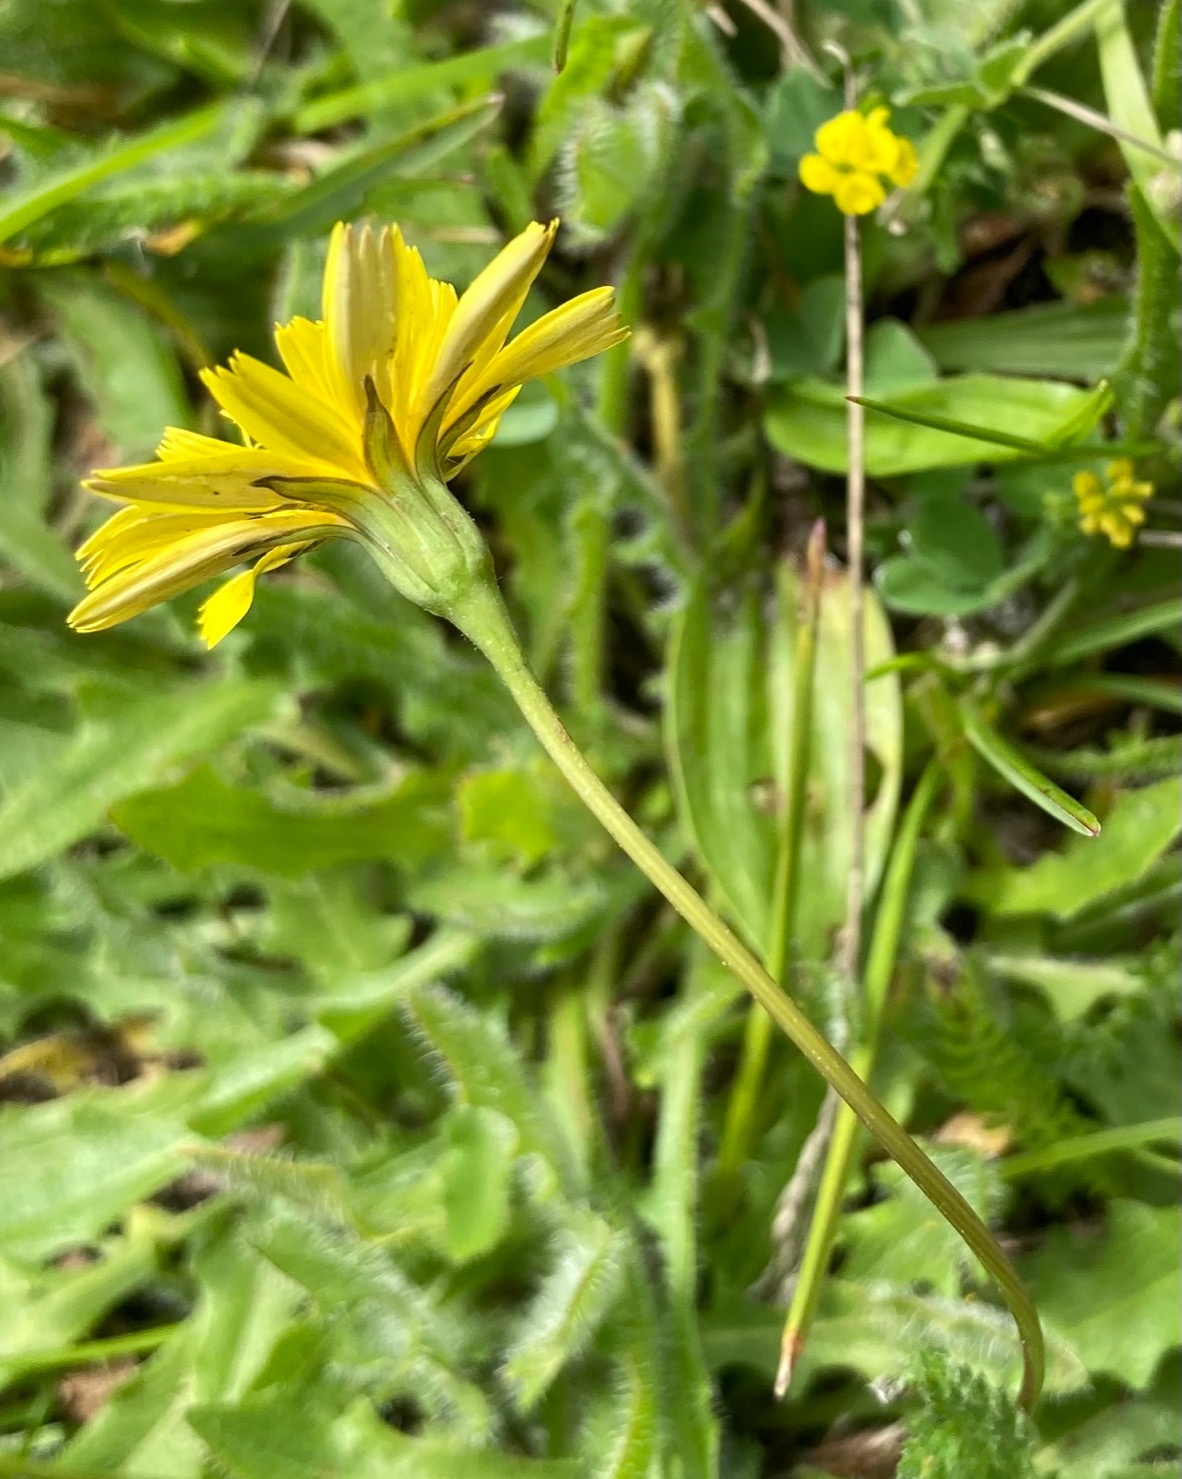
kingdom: Plantae
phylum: Tracheophyta
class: Magnoliopsida
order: Asterales
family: Asteraceae
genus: Thrincia
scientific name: Thrincia saxatilis
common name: Hundesalat
